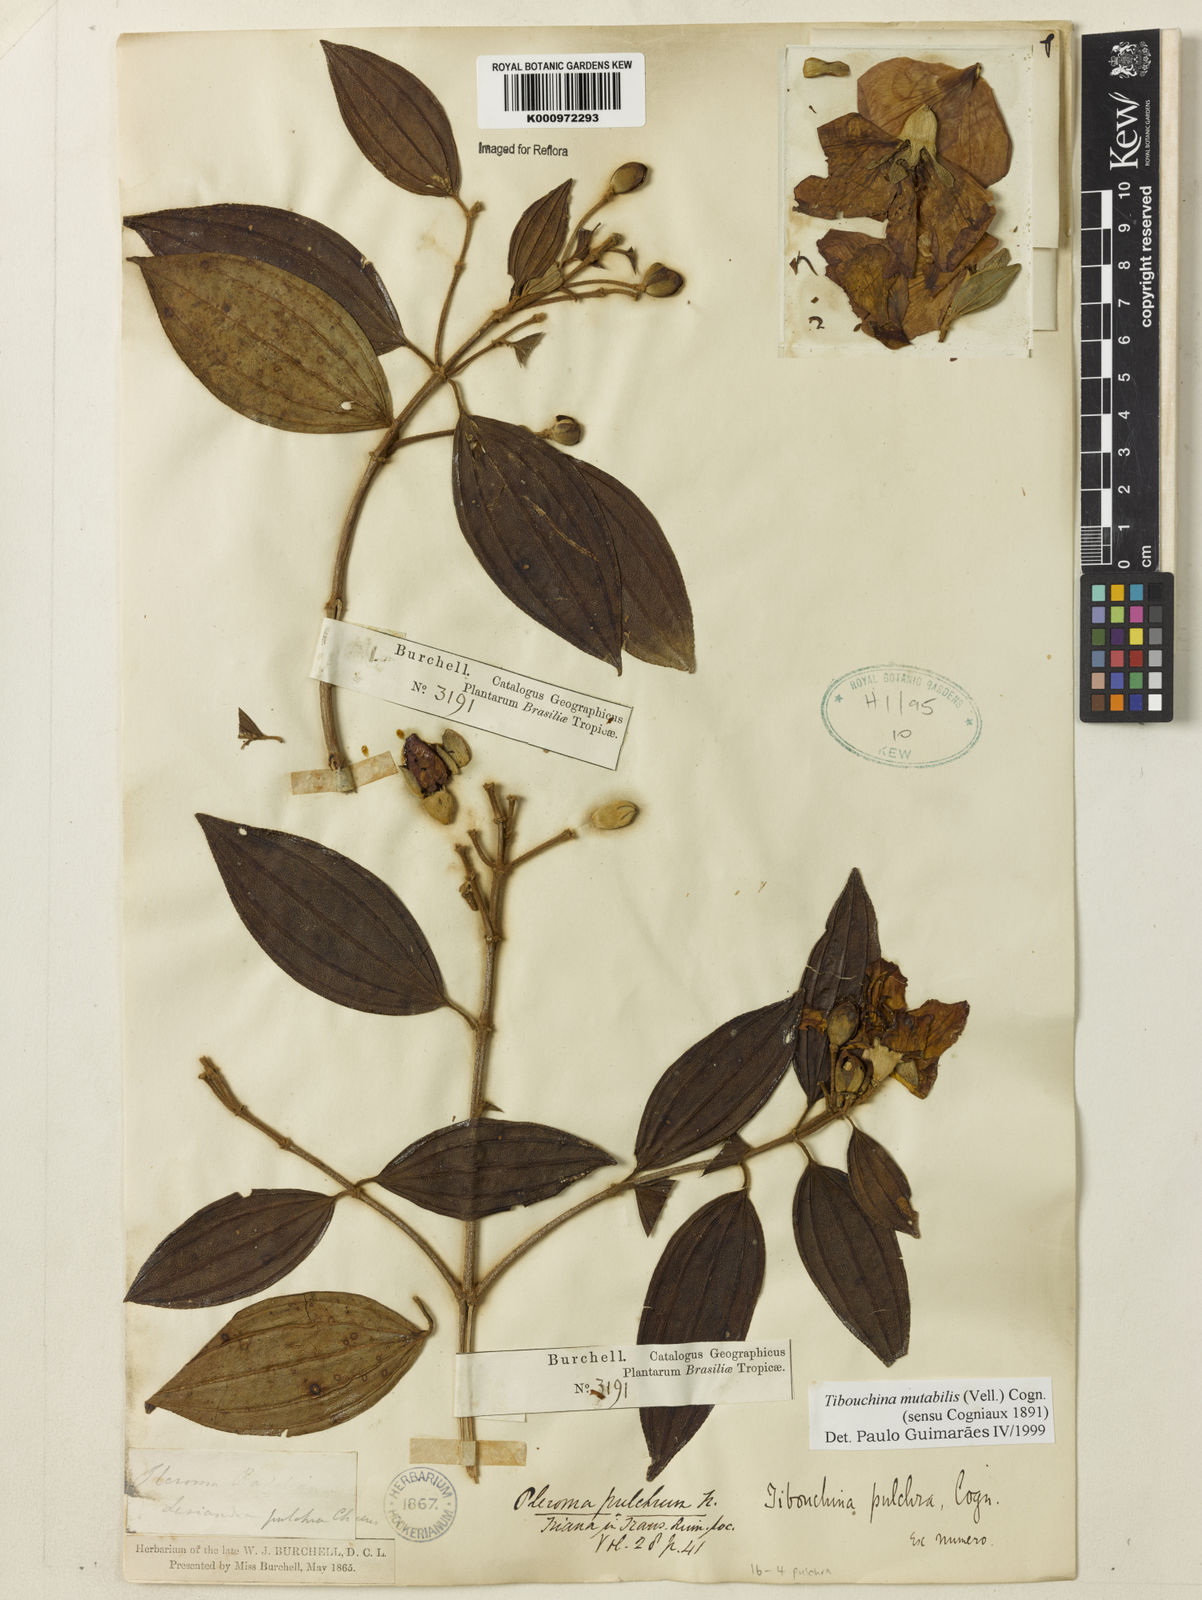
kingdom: Plantae
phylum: Tracheophyta
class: Magnoliopsida
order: Myrtales
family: Melastomataceae
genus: Pleroma
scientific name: Pleroma mutabile
